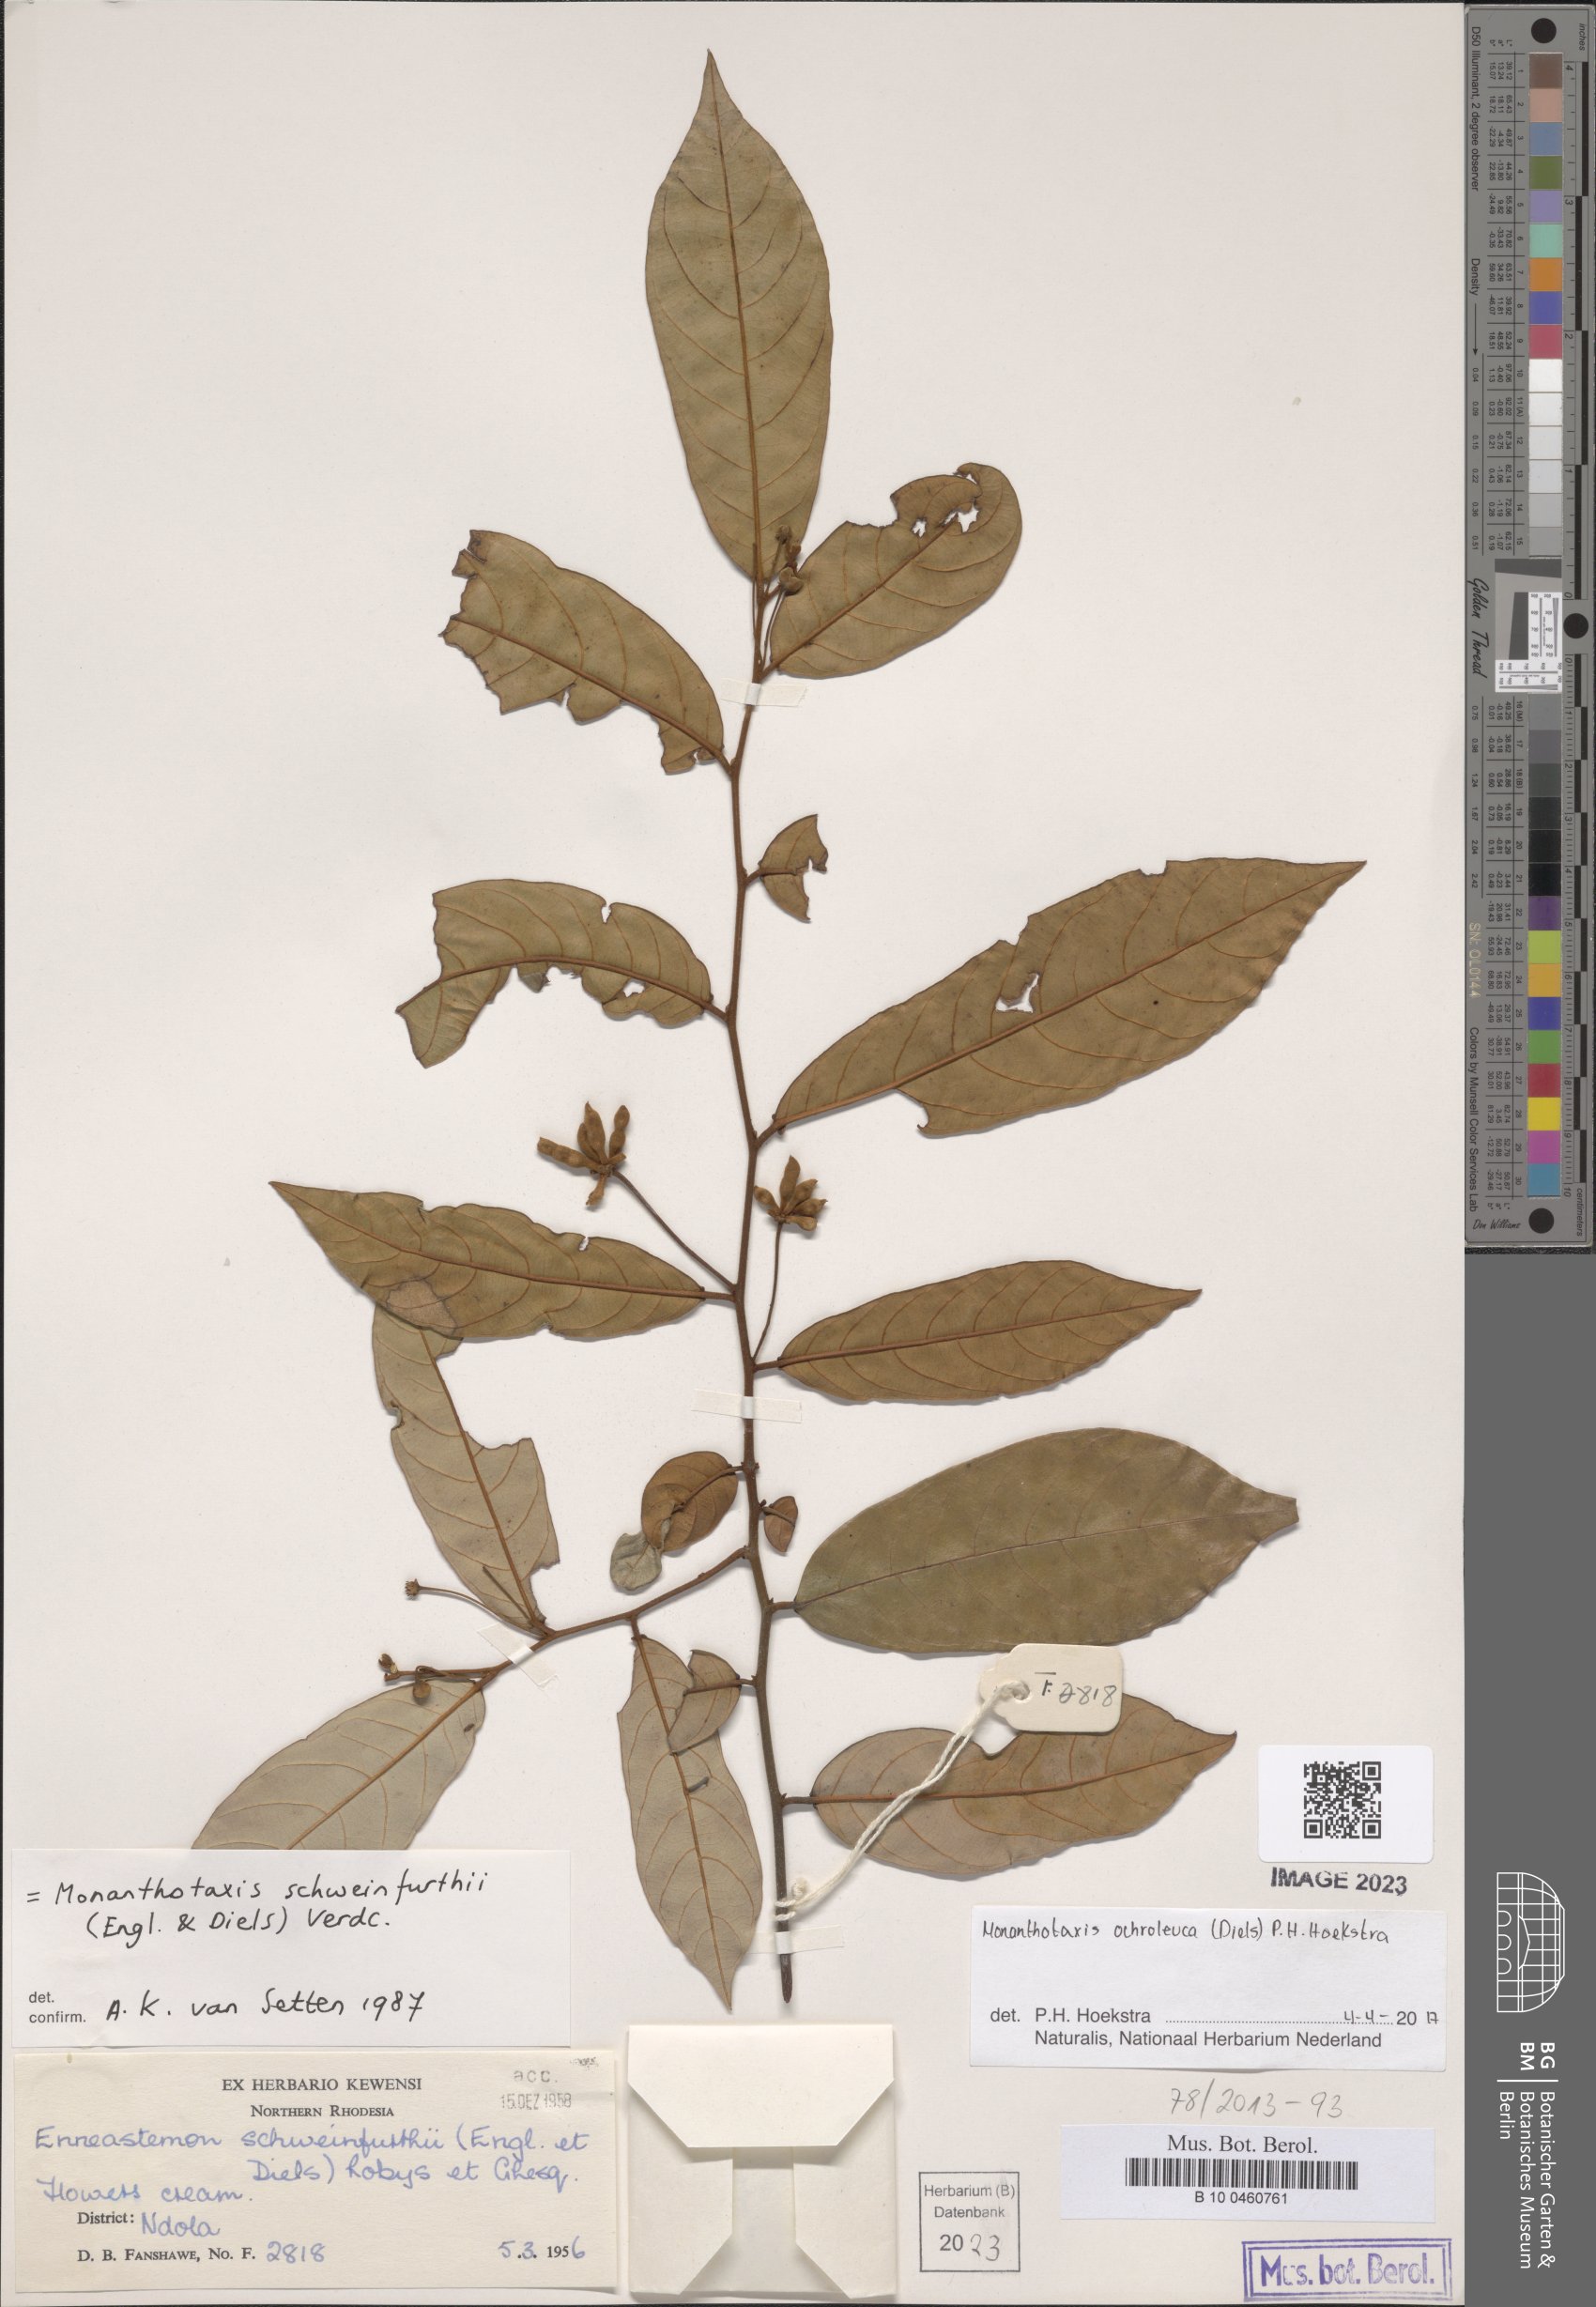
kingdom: Plantae
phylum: Tracheophyta
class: Magnoliopsida
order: Magnoliales
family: Annonaceae
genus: Monanthotaxis
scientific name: Monanthotaxis
